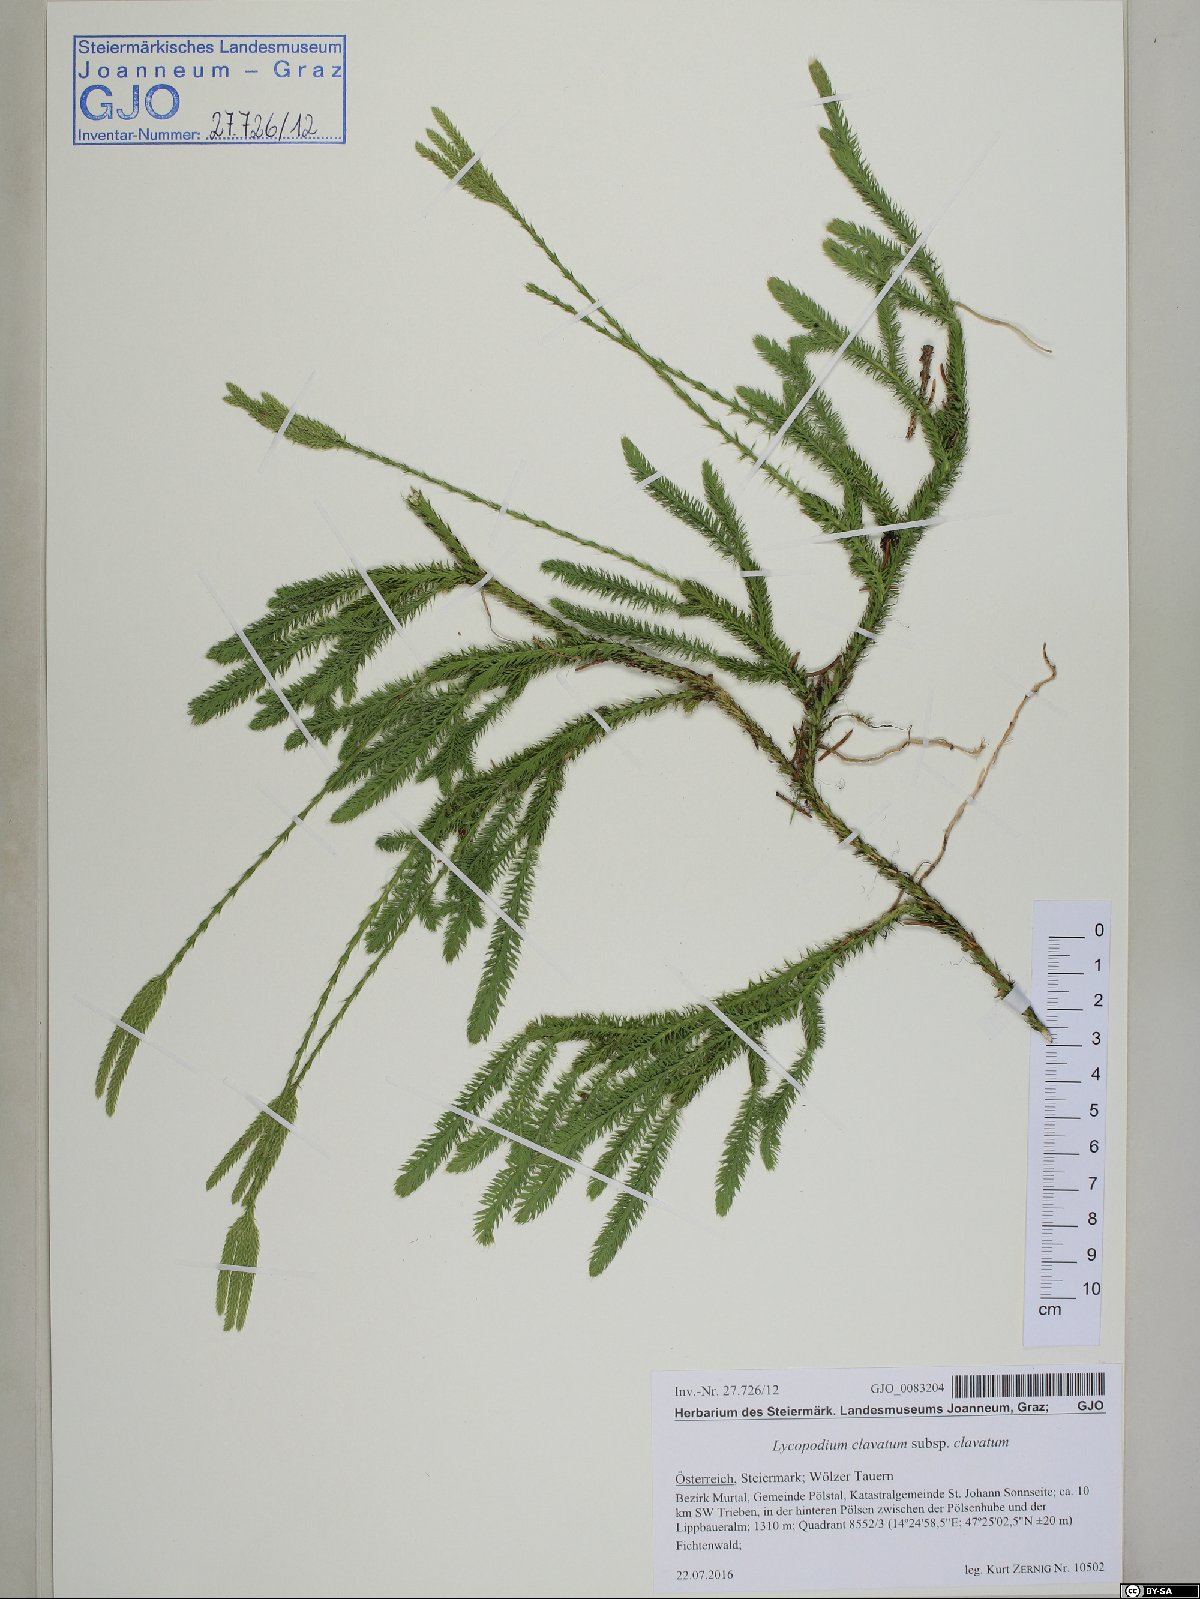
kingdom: Plantae
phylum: Tracheophyta
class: Lycopodiopsida
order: Lycopodiales
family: Lycopodiaceae
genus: Lycopodium
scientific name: Lycopodium clavatum
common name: Stag's-horn clubmoss
